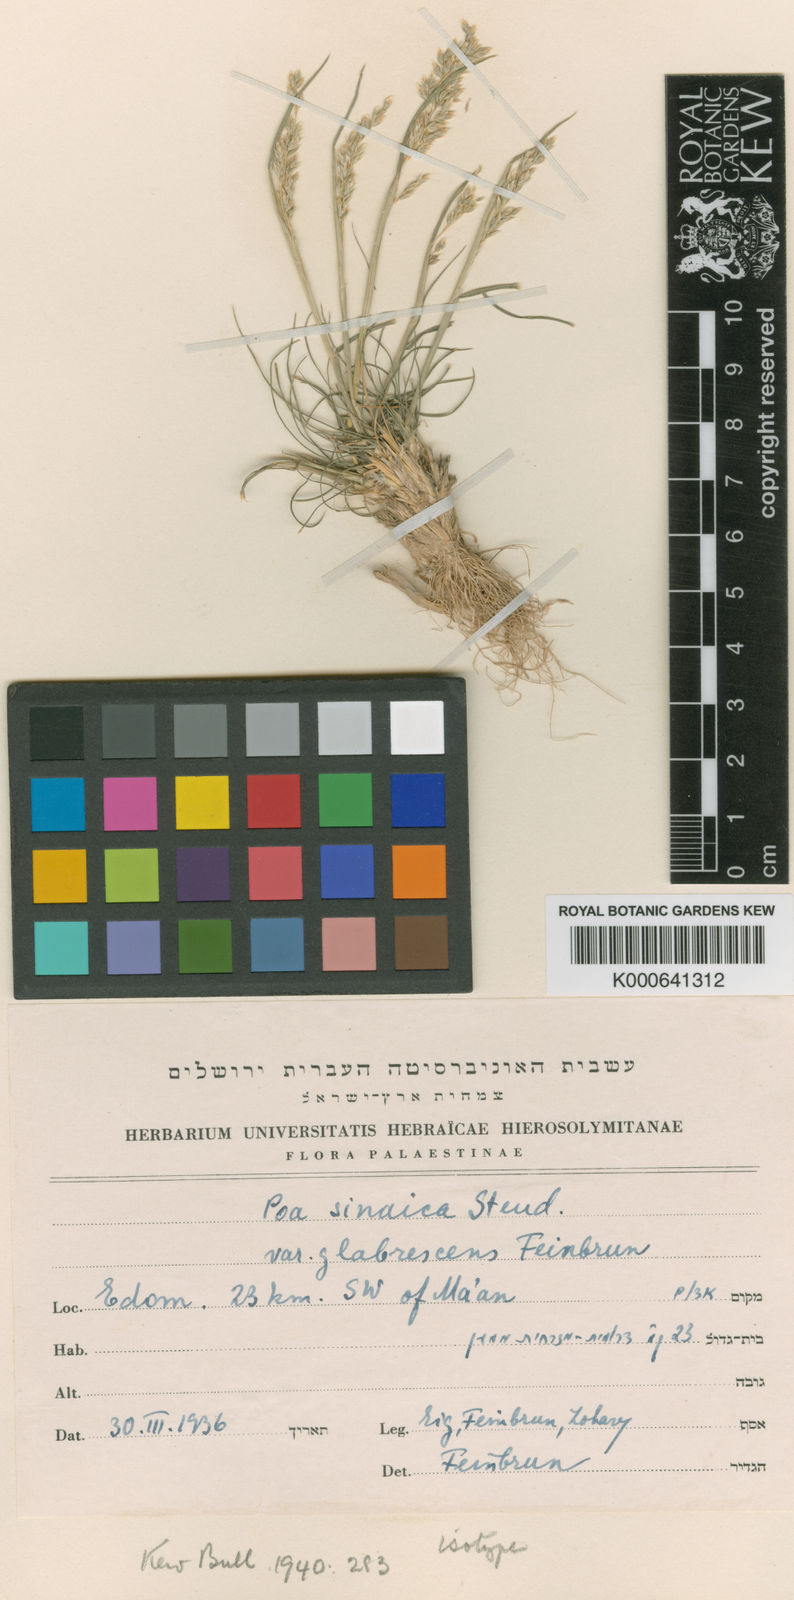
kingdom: Plantae
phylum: Tracheophyta
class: Liliopsida
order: Poales
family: Poaceae
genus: Poa
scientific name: Poa sinaica
